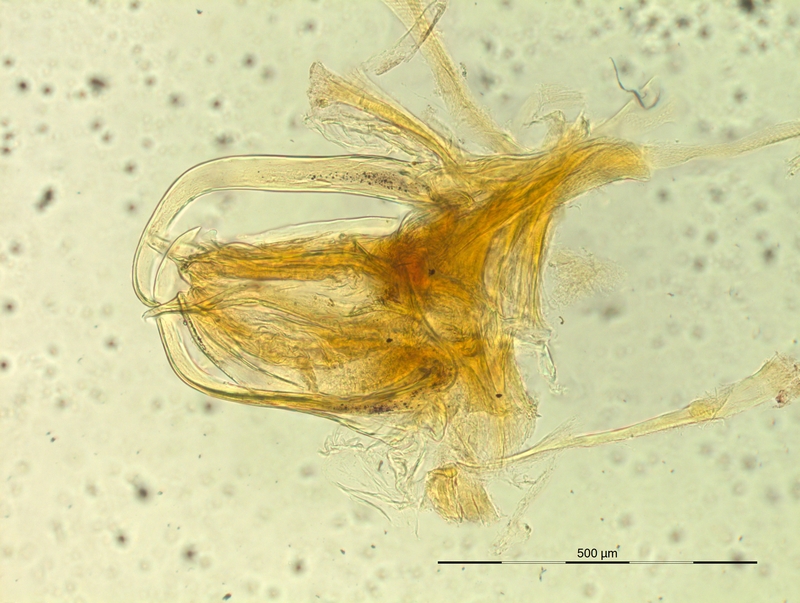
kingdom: Animalia
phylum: Arthropoda
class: Diplopoda
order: Chordeumatida
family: Craspedosomatidae
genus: Oxydactylon
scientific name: Oxydactylon hamuligerum
